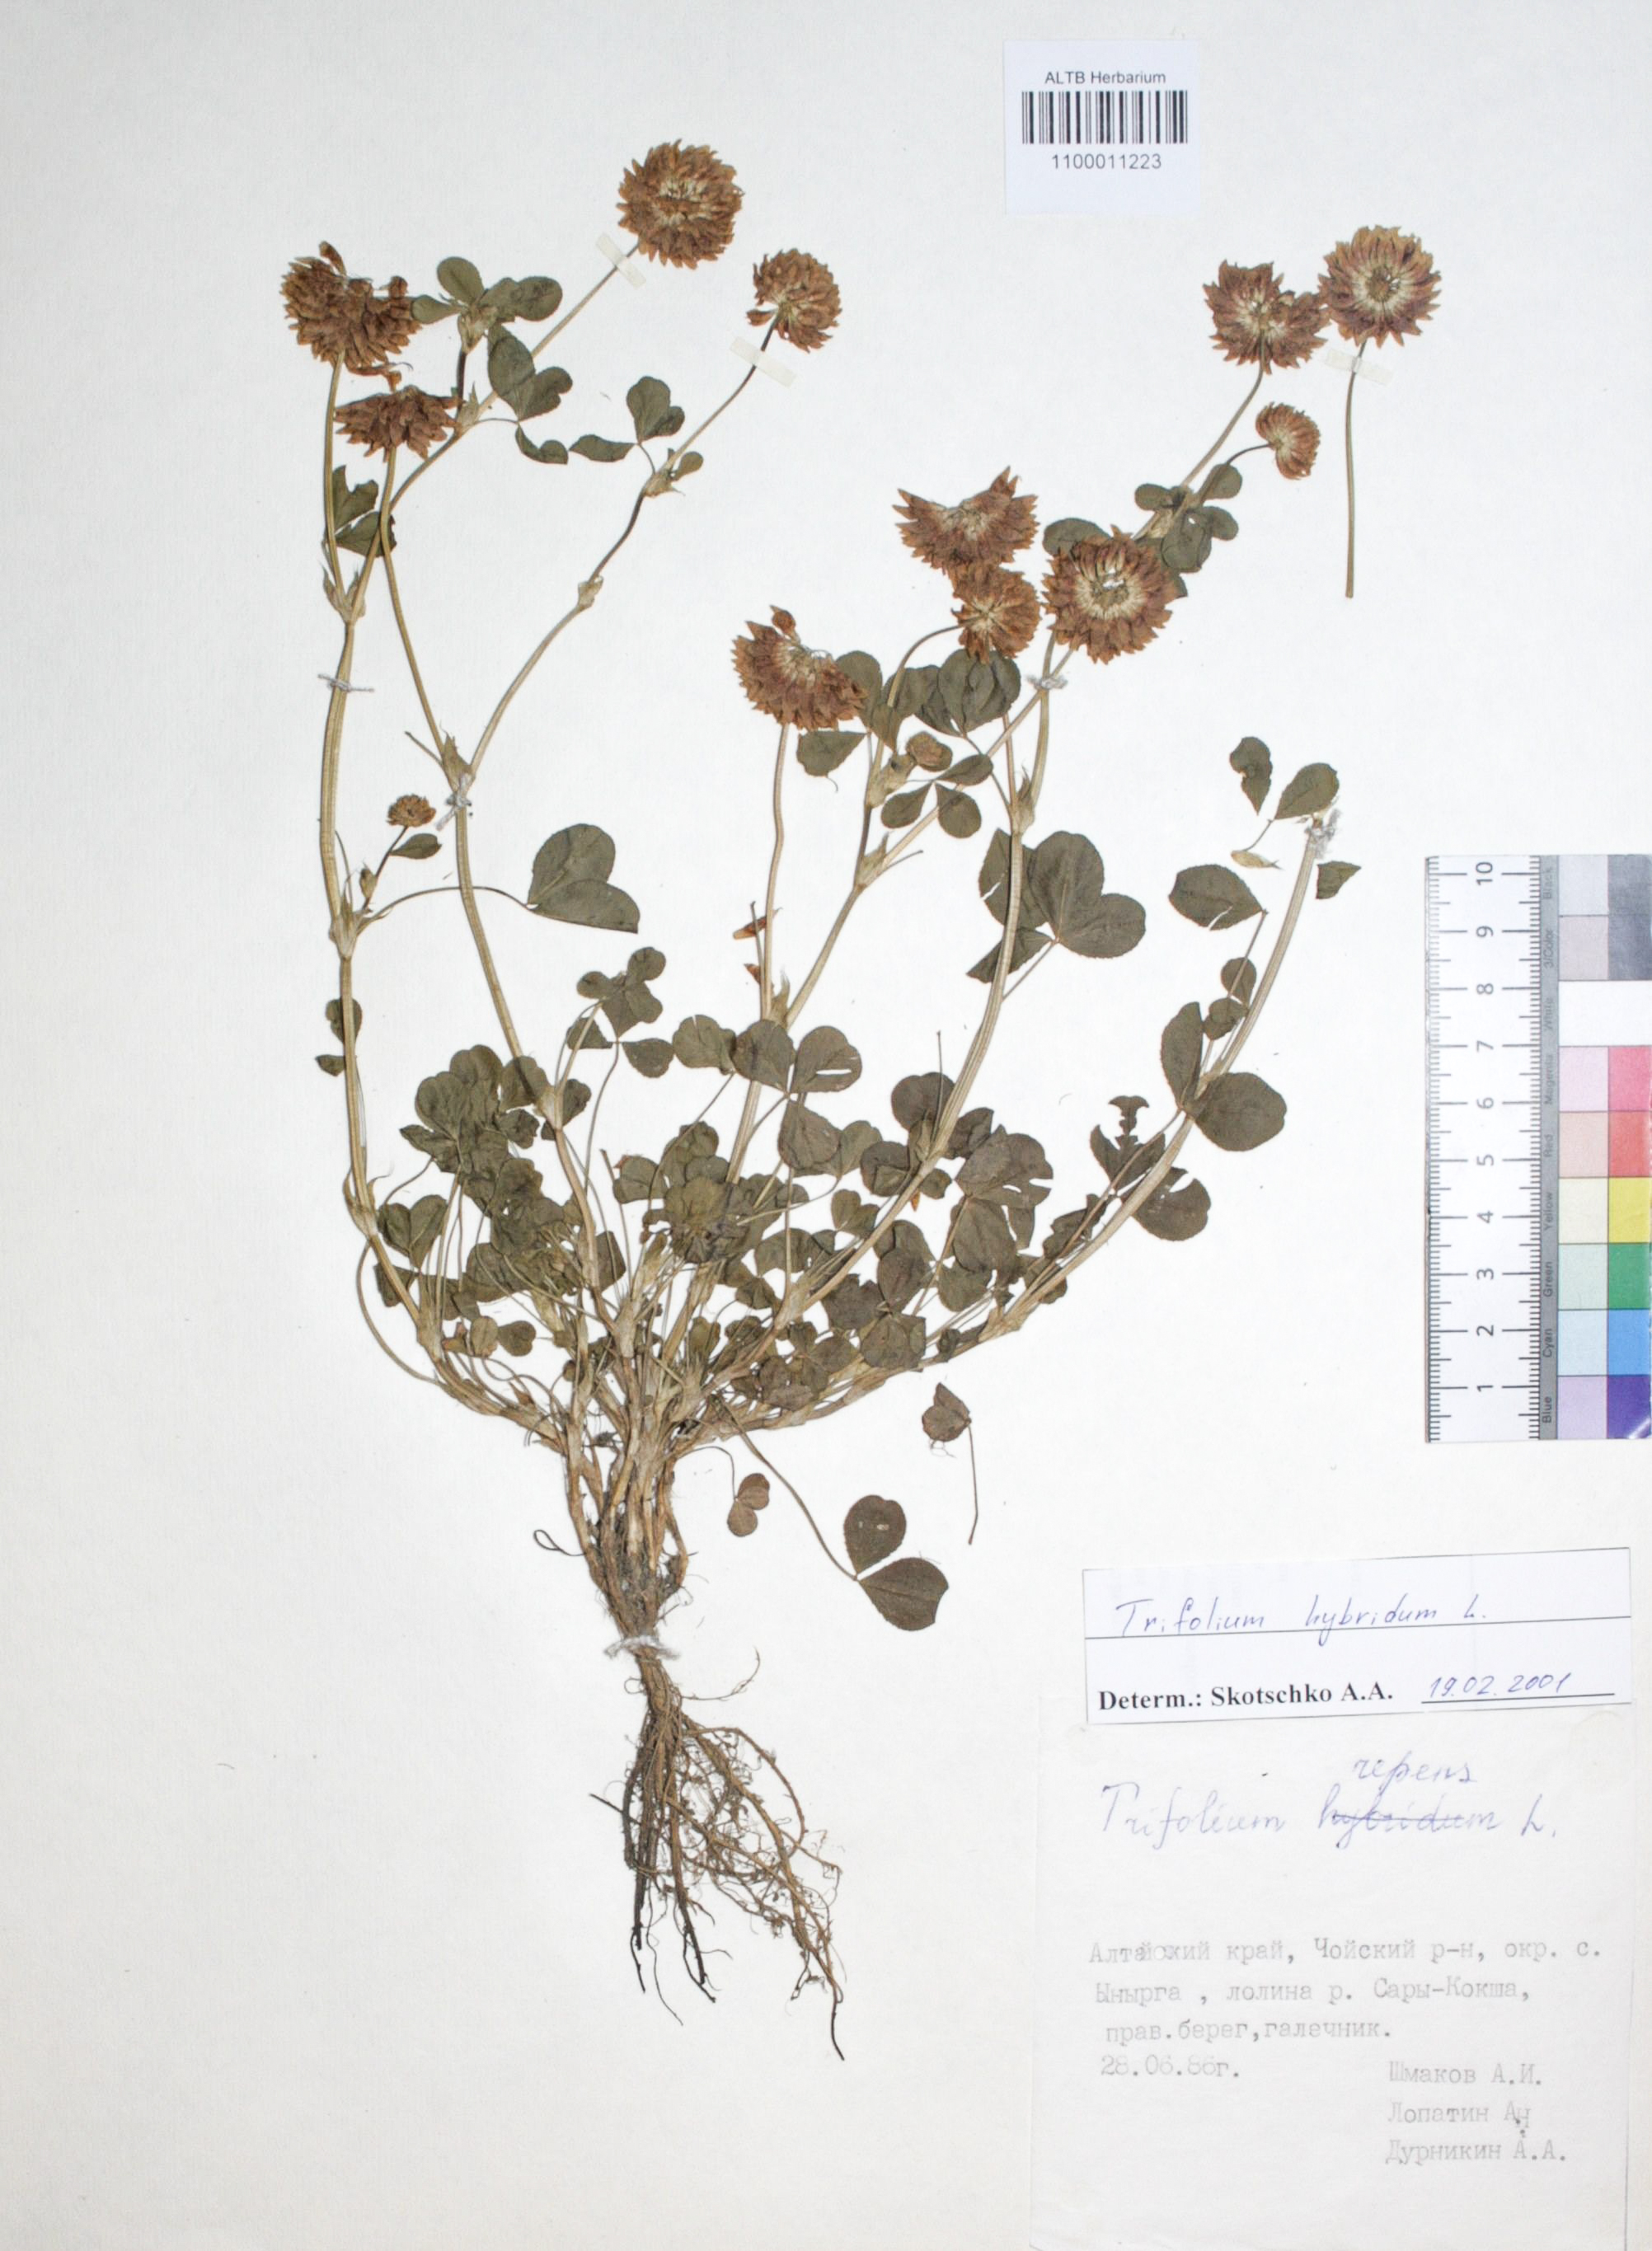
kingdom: Plantae
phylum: Tracheophyta
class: Magnoliopsida
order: Fabales
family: Fabaceae
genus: Trifolium
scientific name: Trifolium repens
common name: White clover
